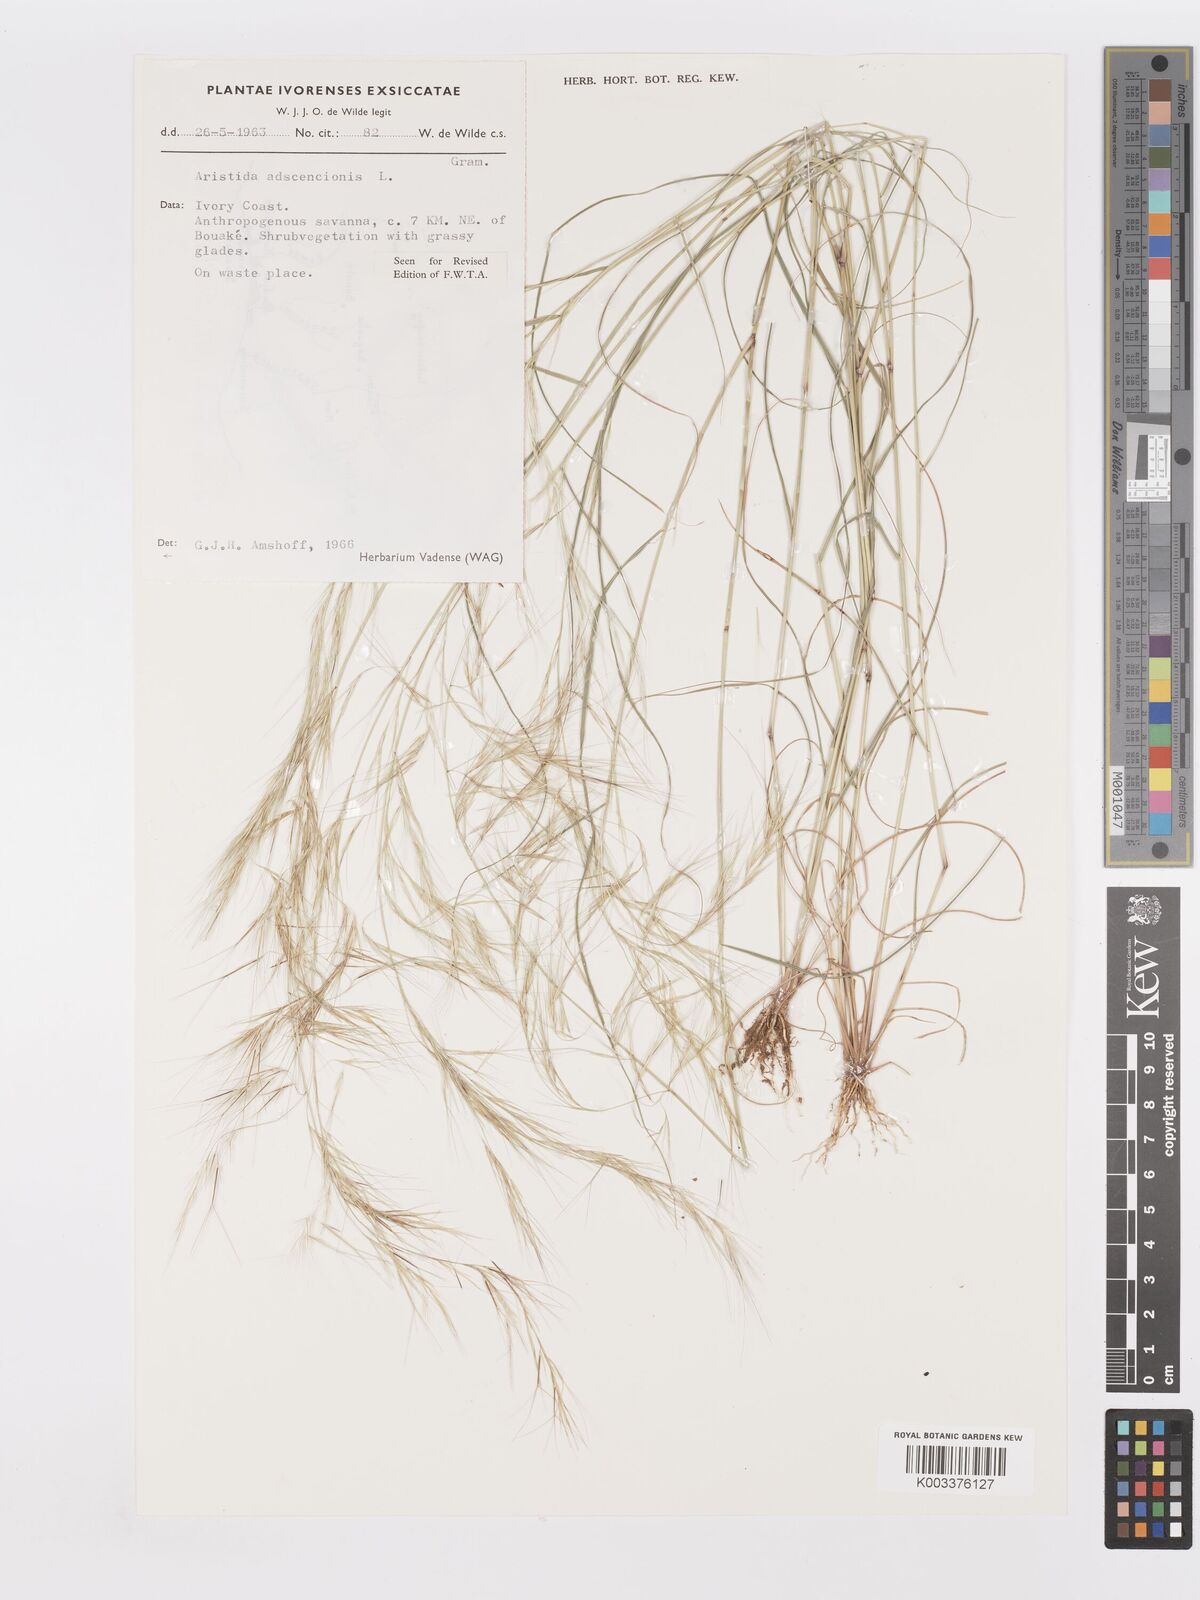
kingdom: Plantae
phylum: Tracheophyta
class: Liliopsida
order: Poales
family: Poaceae
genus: Aristida
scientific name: Aristida adscensionis
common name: Sixweeks threeawn
